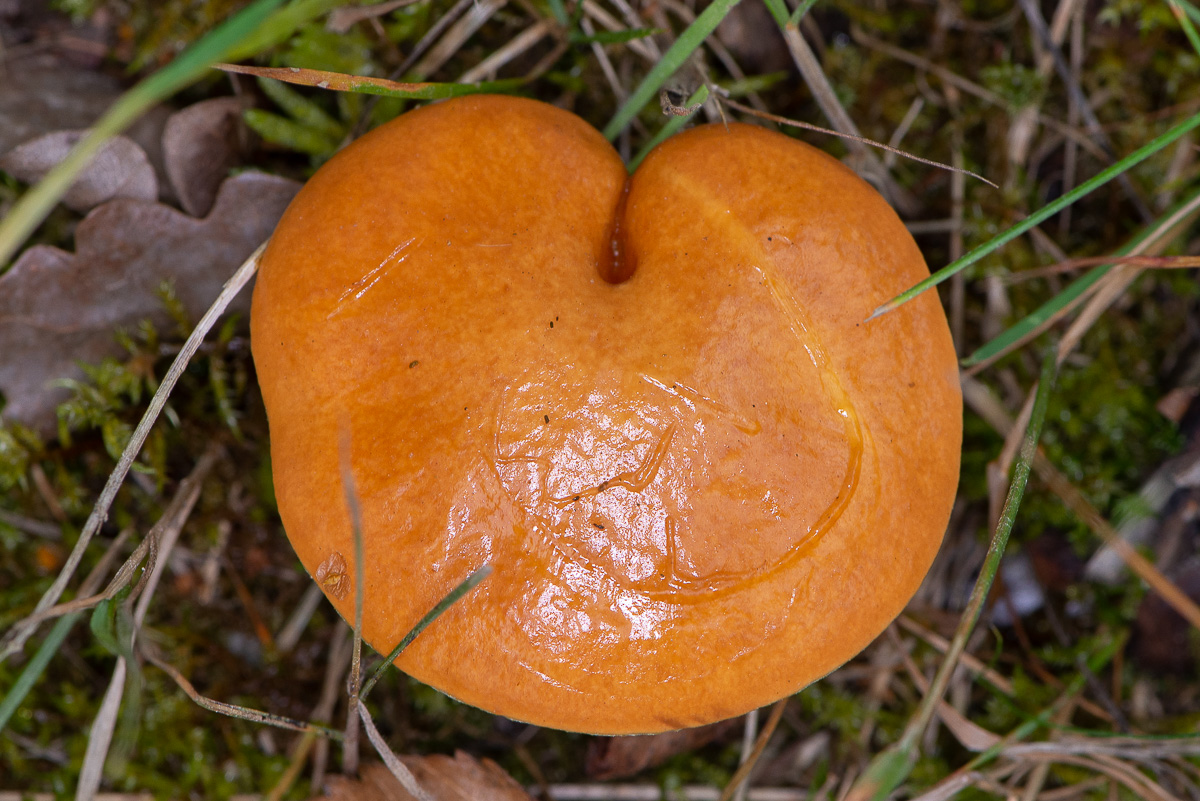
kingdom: Fungi
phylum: Basidiomycota
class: Agaricomycetes
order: Boletales
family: Suillaceae
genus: Suillus
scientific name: Suillus grevillei
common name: lærke-slimrørhat
